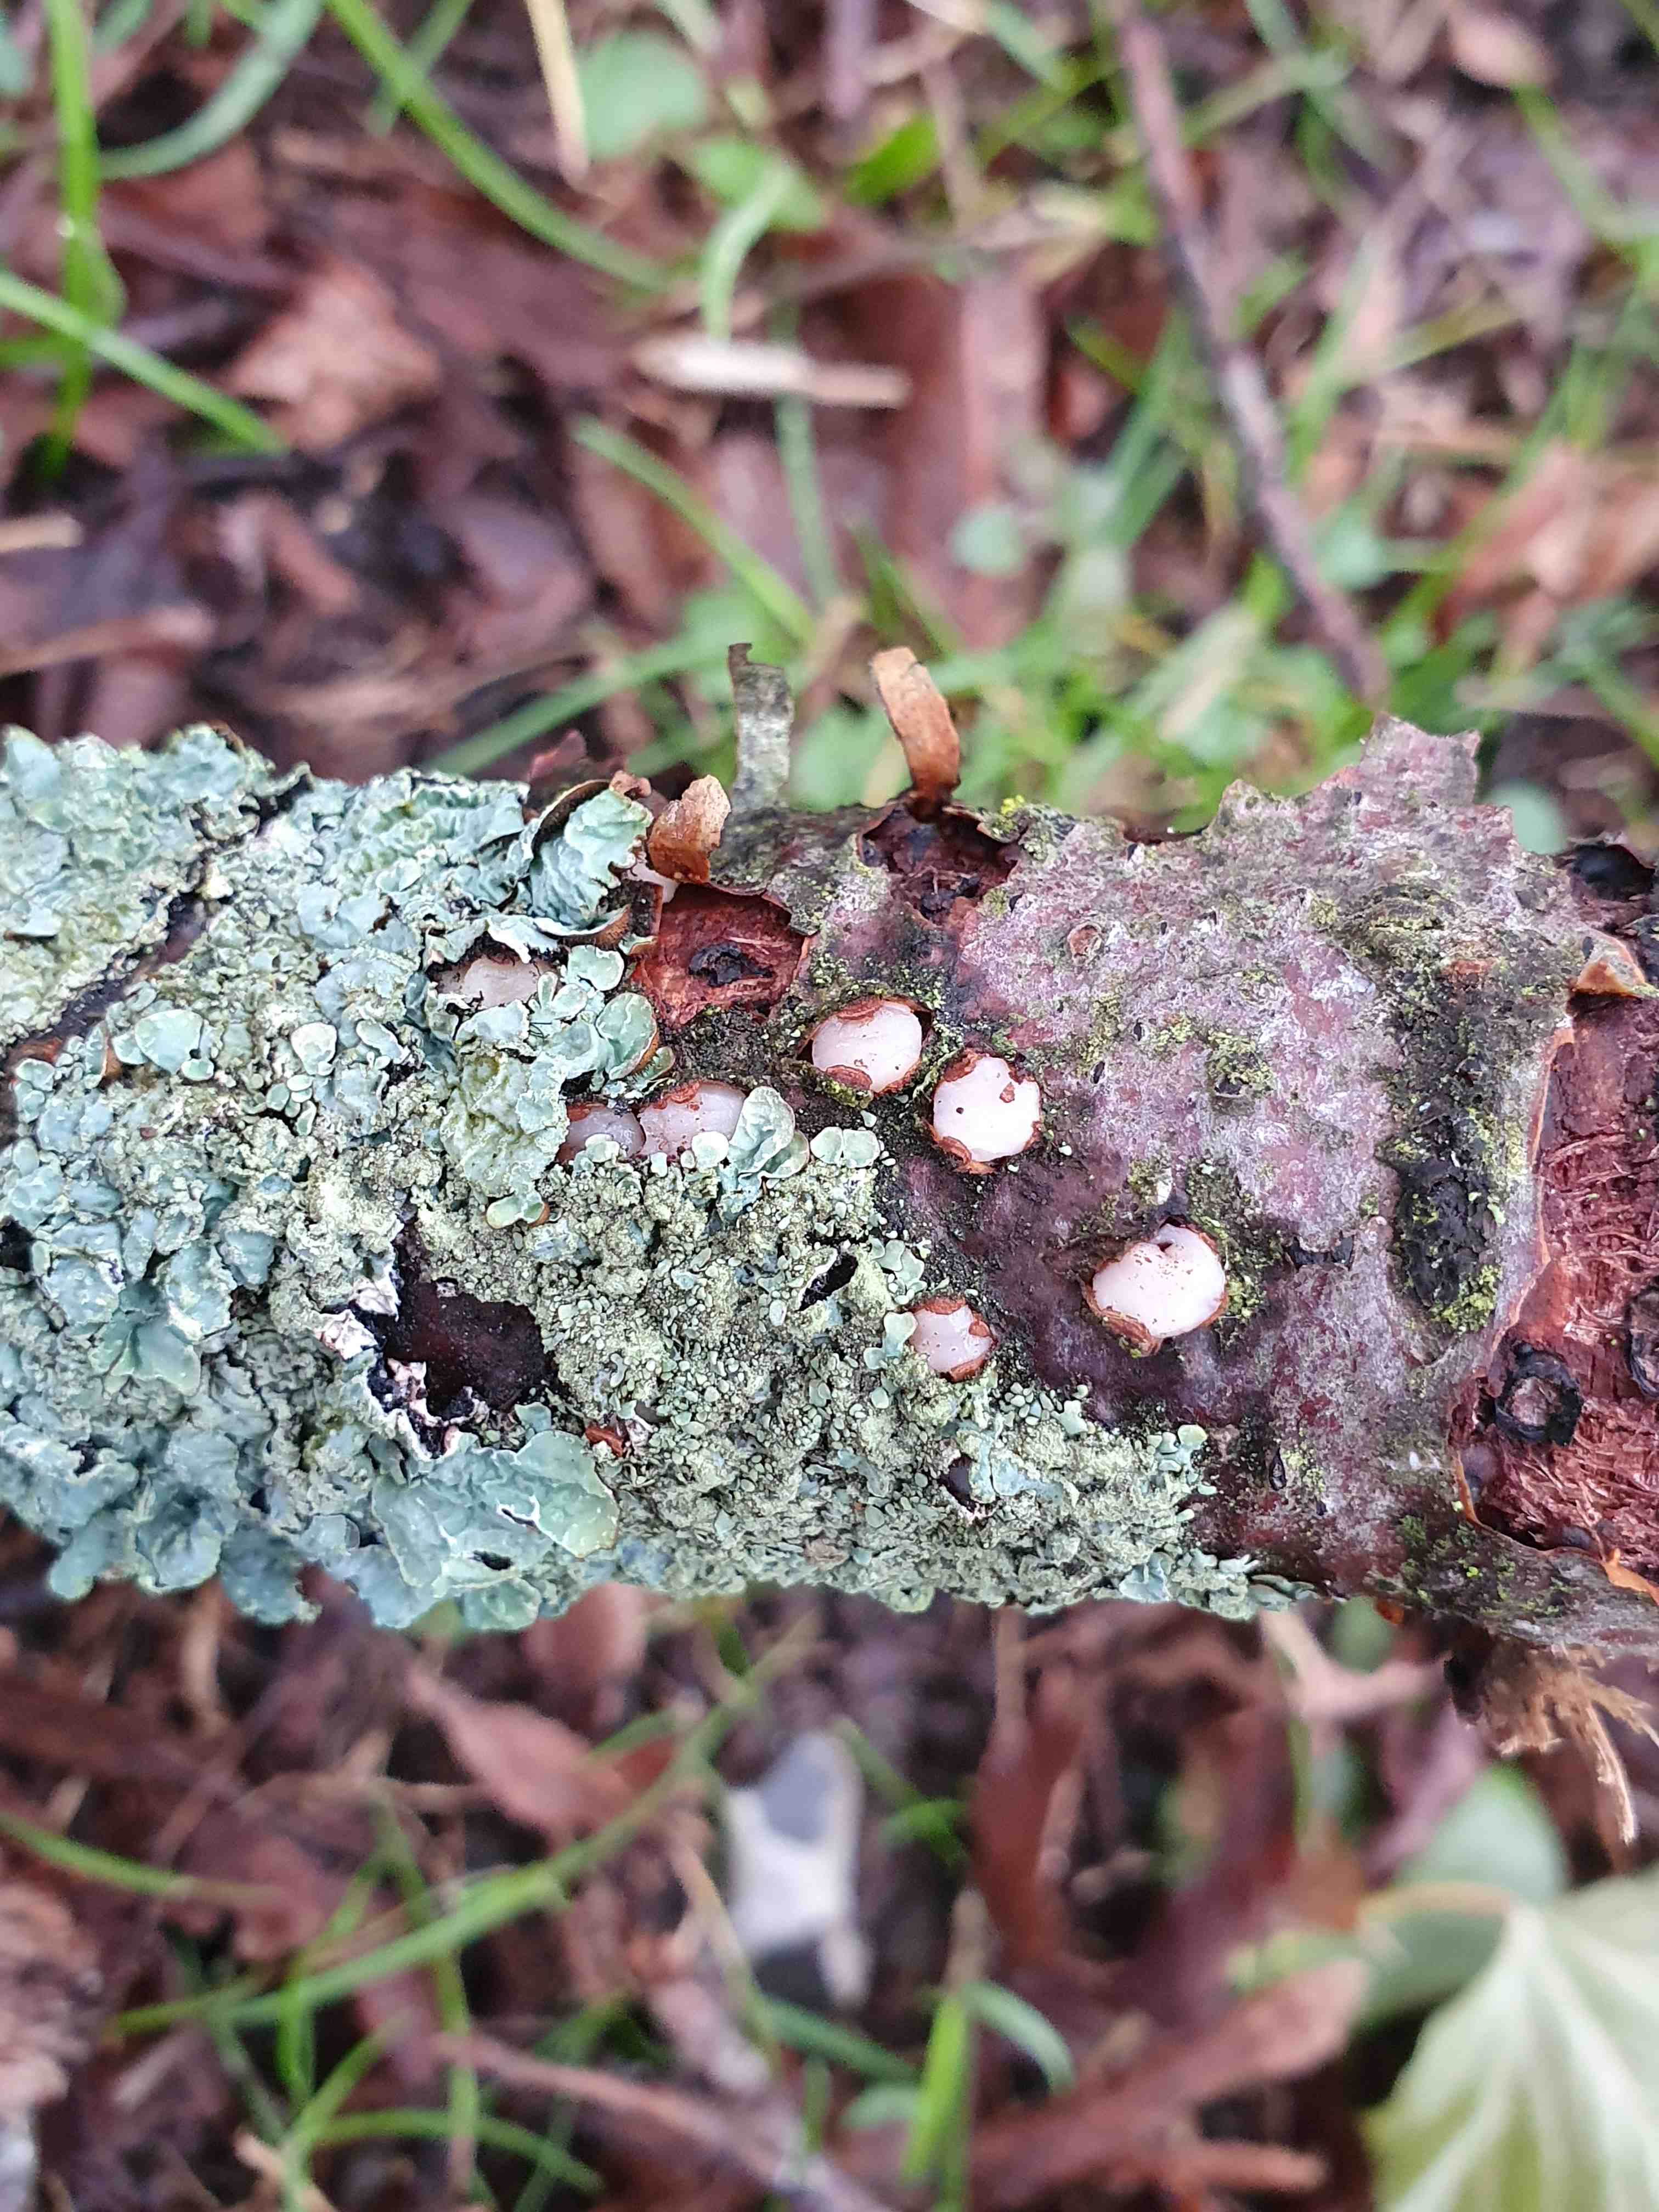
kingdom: Fungi
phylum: Basidiomycota
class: Pucciniomycetes
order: Platygloeales
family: Platygloeaceae
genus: Platygloea
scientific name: Platygloea disciformis
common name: linde-slimklat
